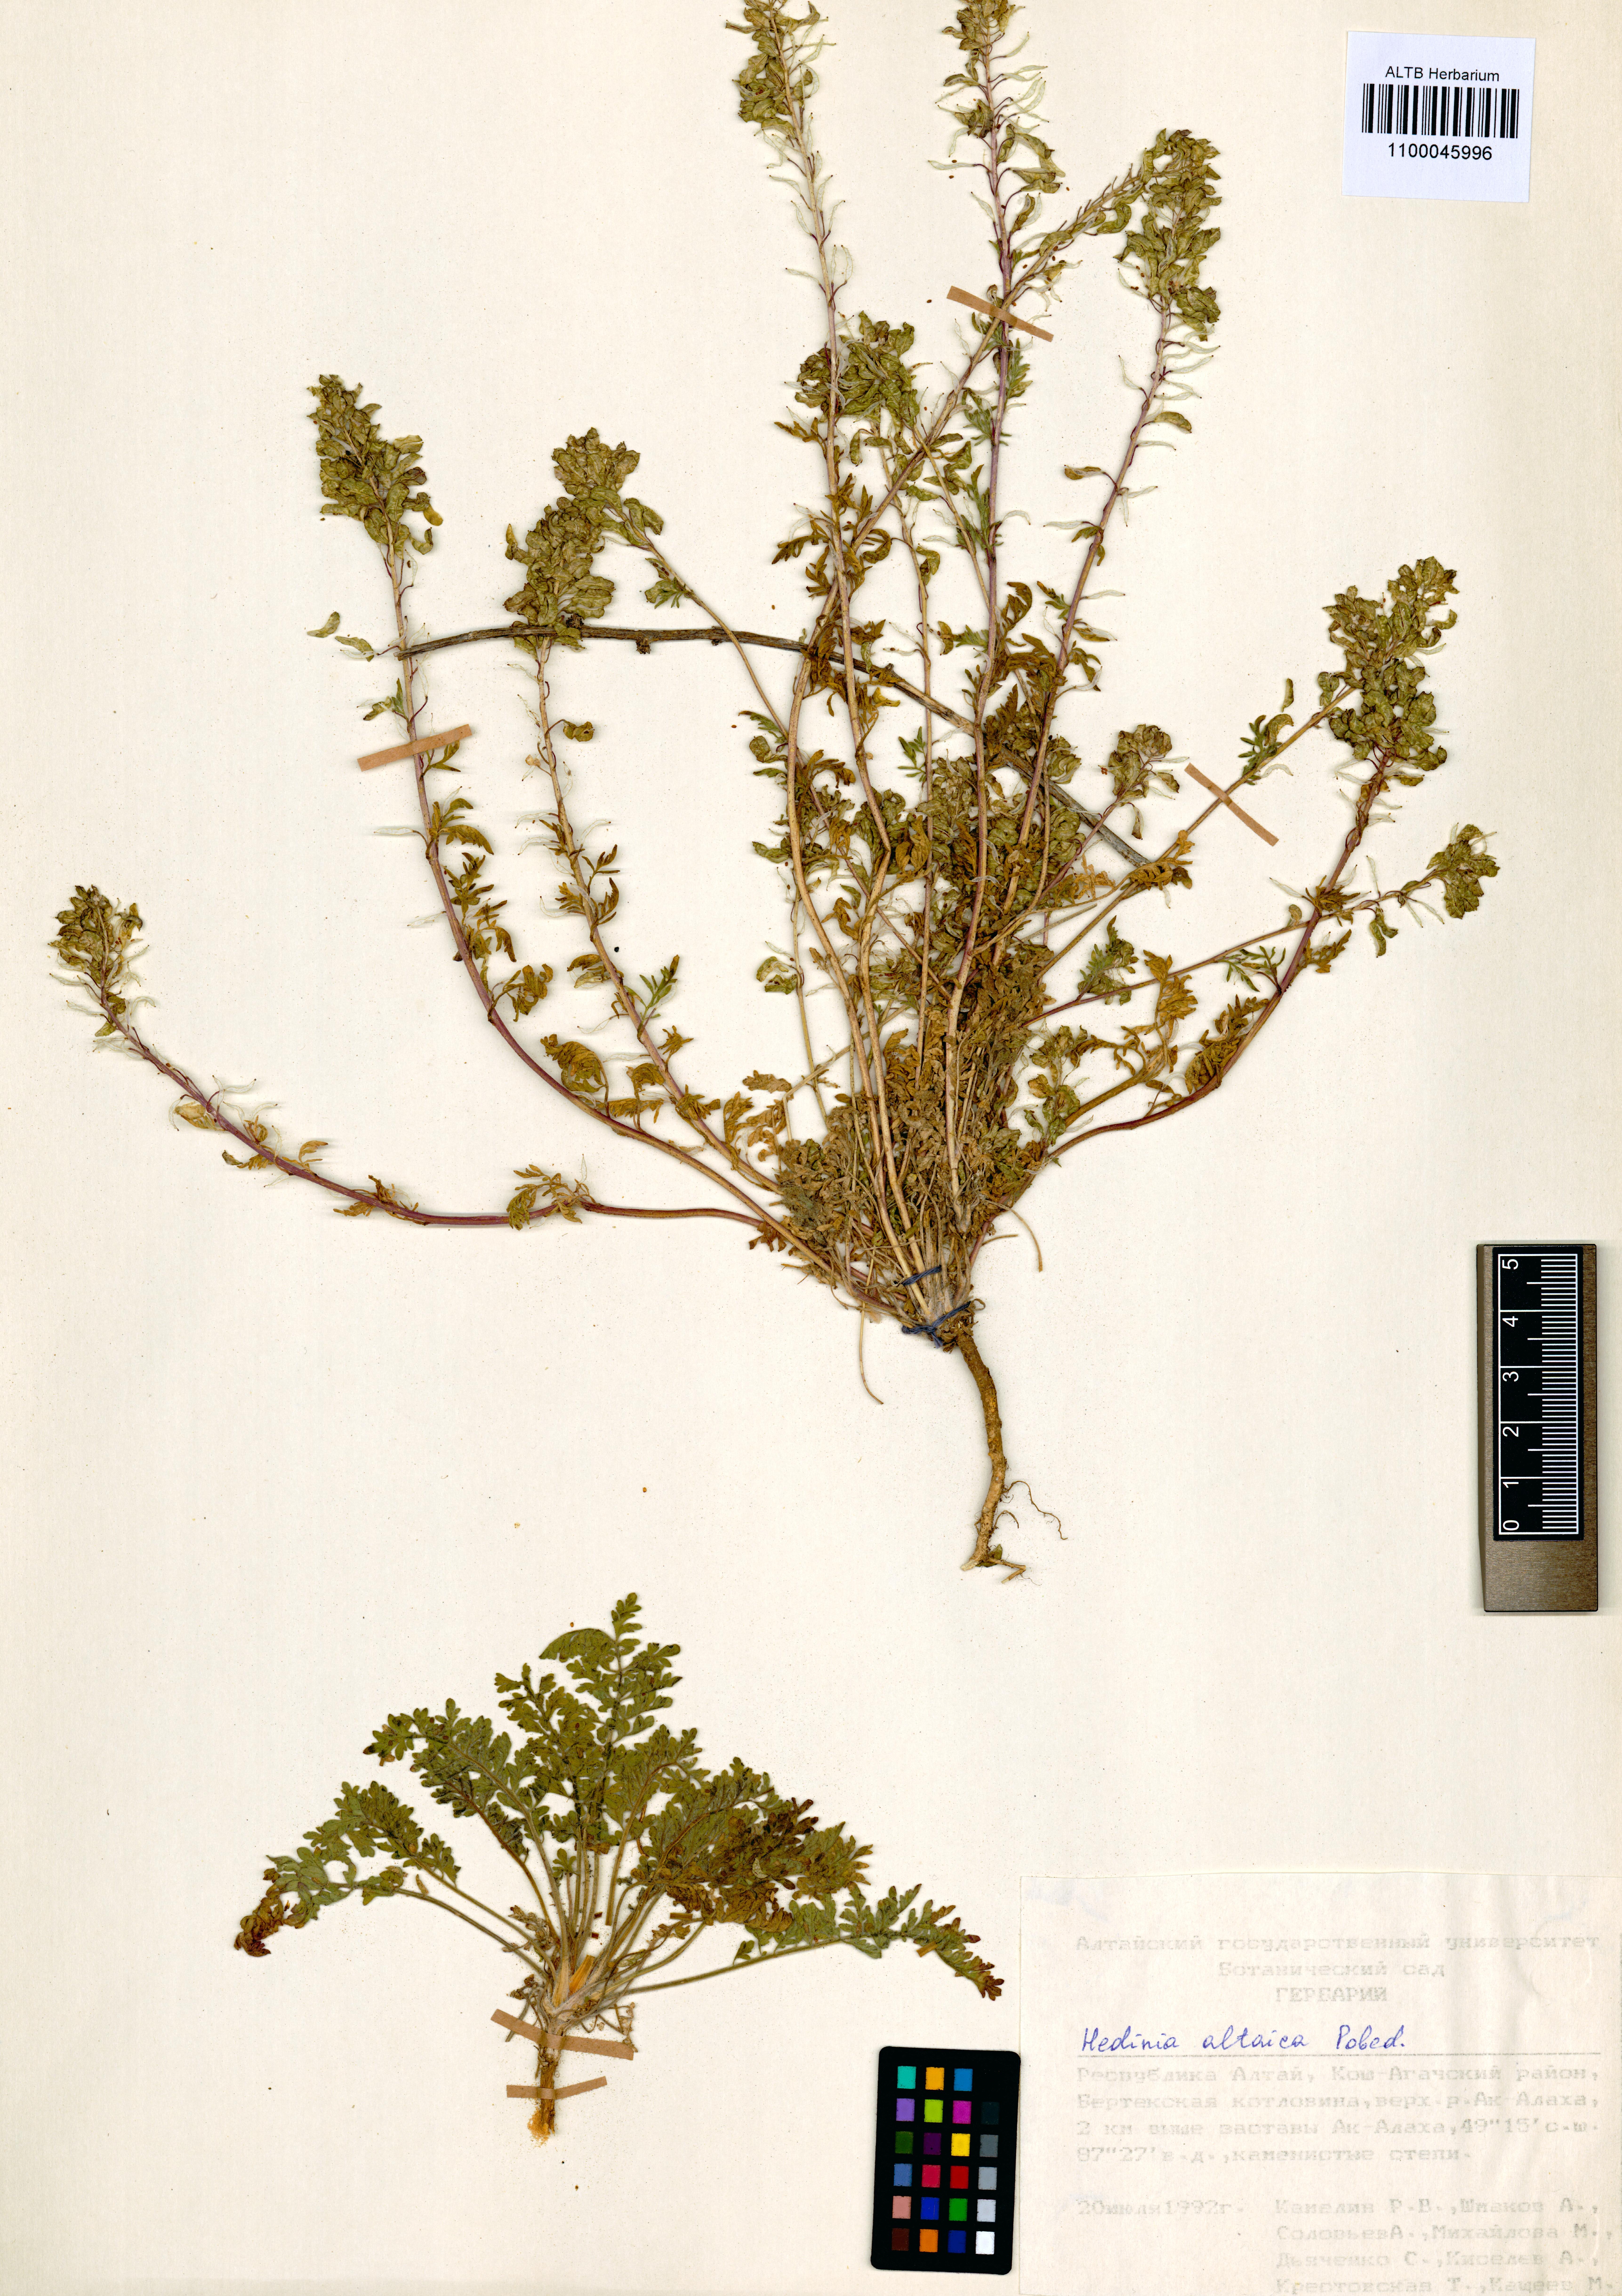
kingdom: Plantae
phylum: Tracheophyta
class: Magnoliopsida
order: Brassicales
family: Brassicaceae
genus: Smelowskia
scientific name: Smelowskia altaica
